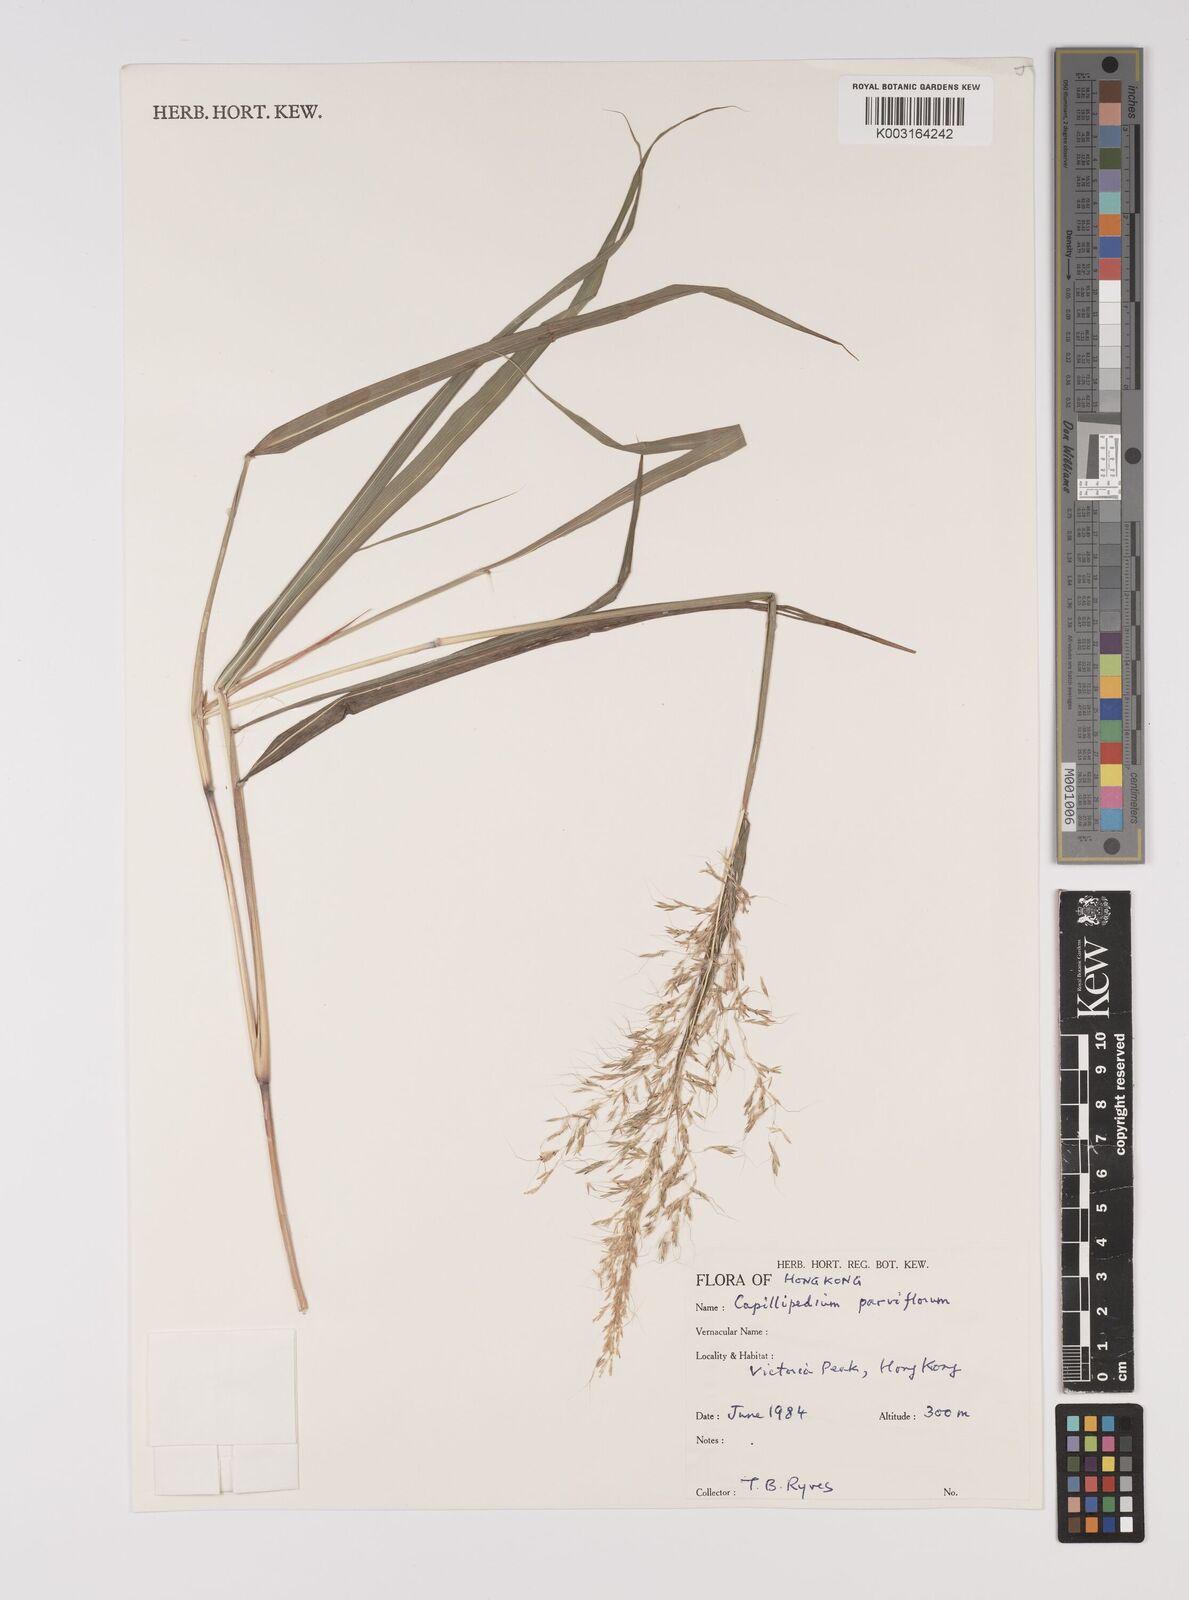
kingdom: Plantae
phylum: Tracheophyta
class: Liliopsida
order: Poales
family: Poaceae
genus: Capillipedium
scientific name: Capillipedium parviflorum
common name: Golden-beard
